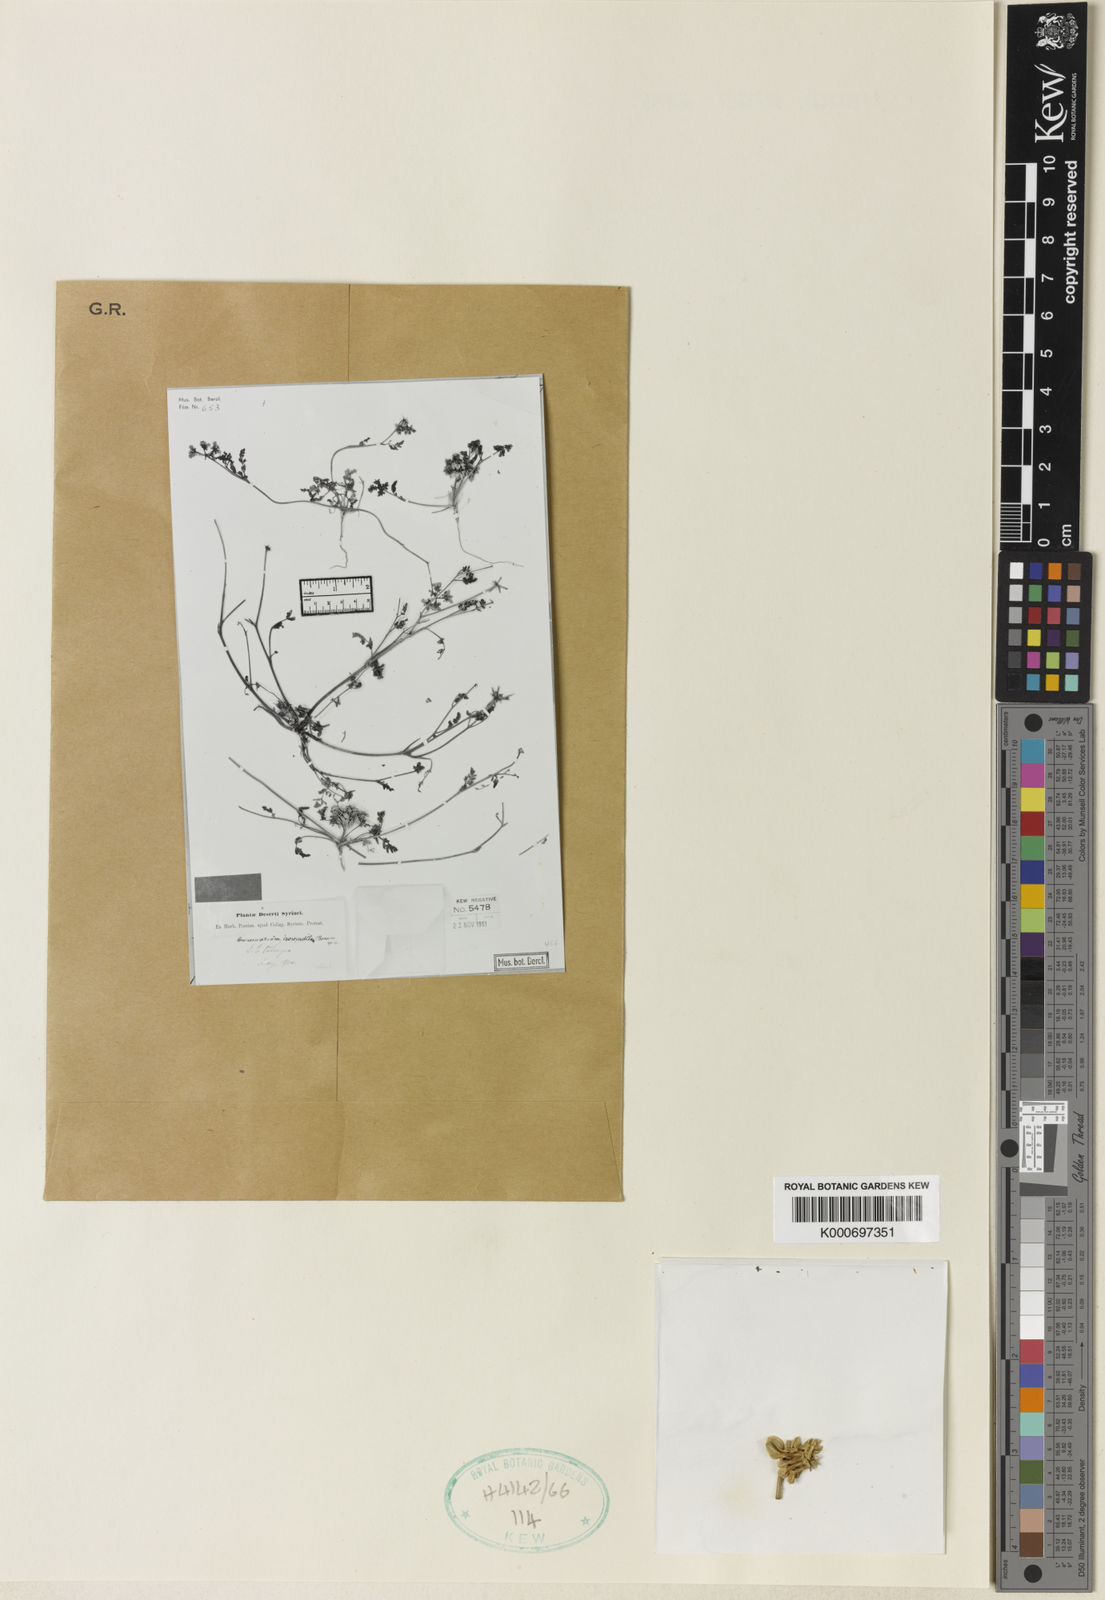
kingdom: Plantae
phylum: Tracheophyta
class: Magnoliopsida
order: Apiales
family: Apiaceae
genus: Anisosciadium
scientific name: Anisosciadium isosciadium
